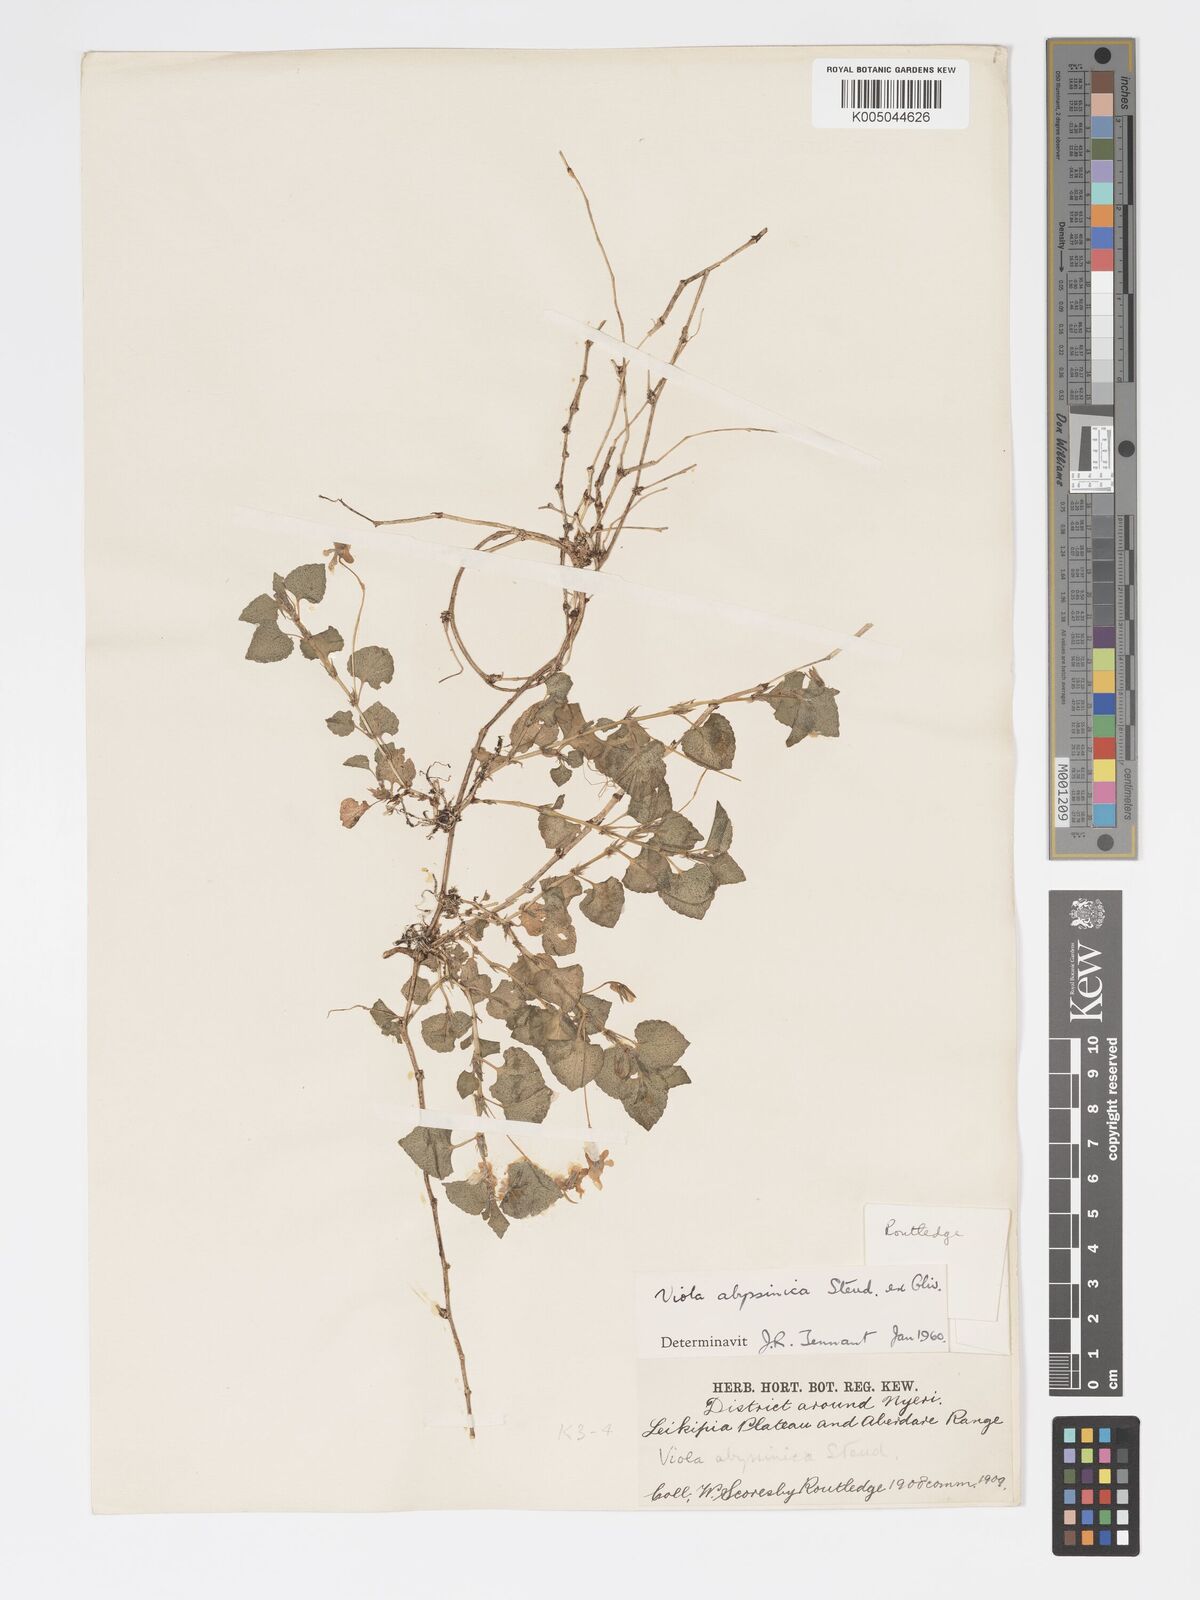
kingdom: Plantae
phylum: Tracheophyta
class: Magnoliopsida
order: Malpighiales
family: Violaceae
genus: Viola
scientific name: Viola abyssinica
